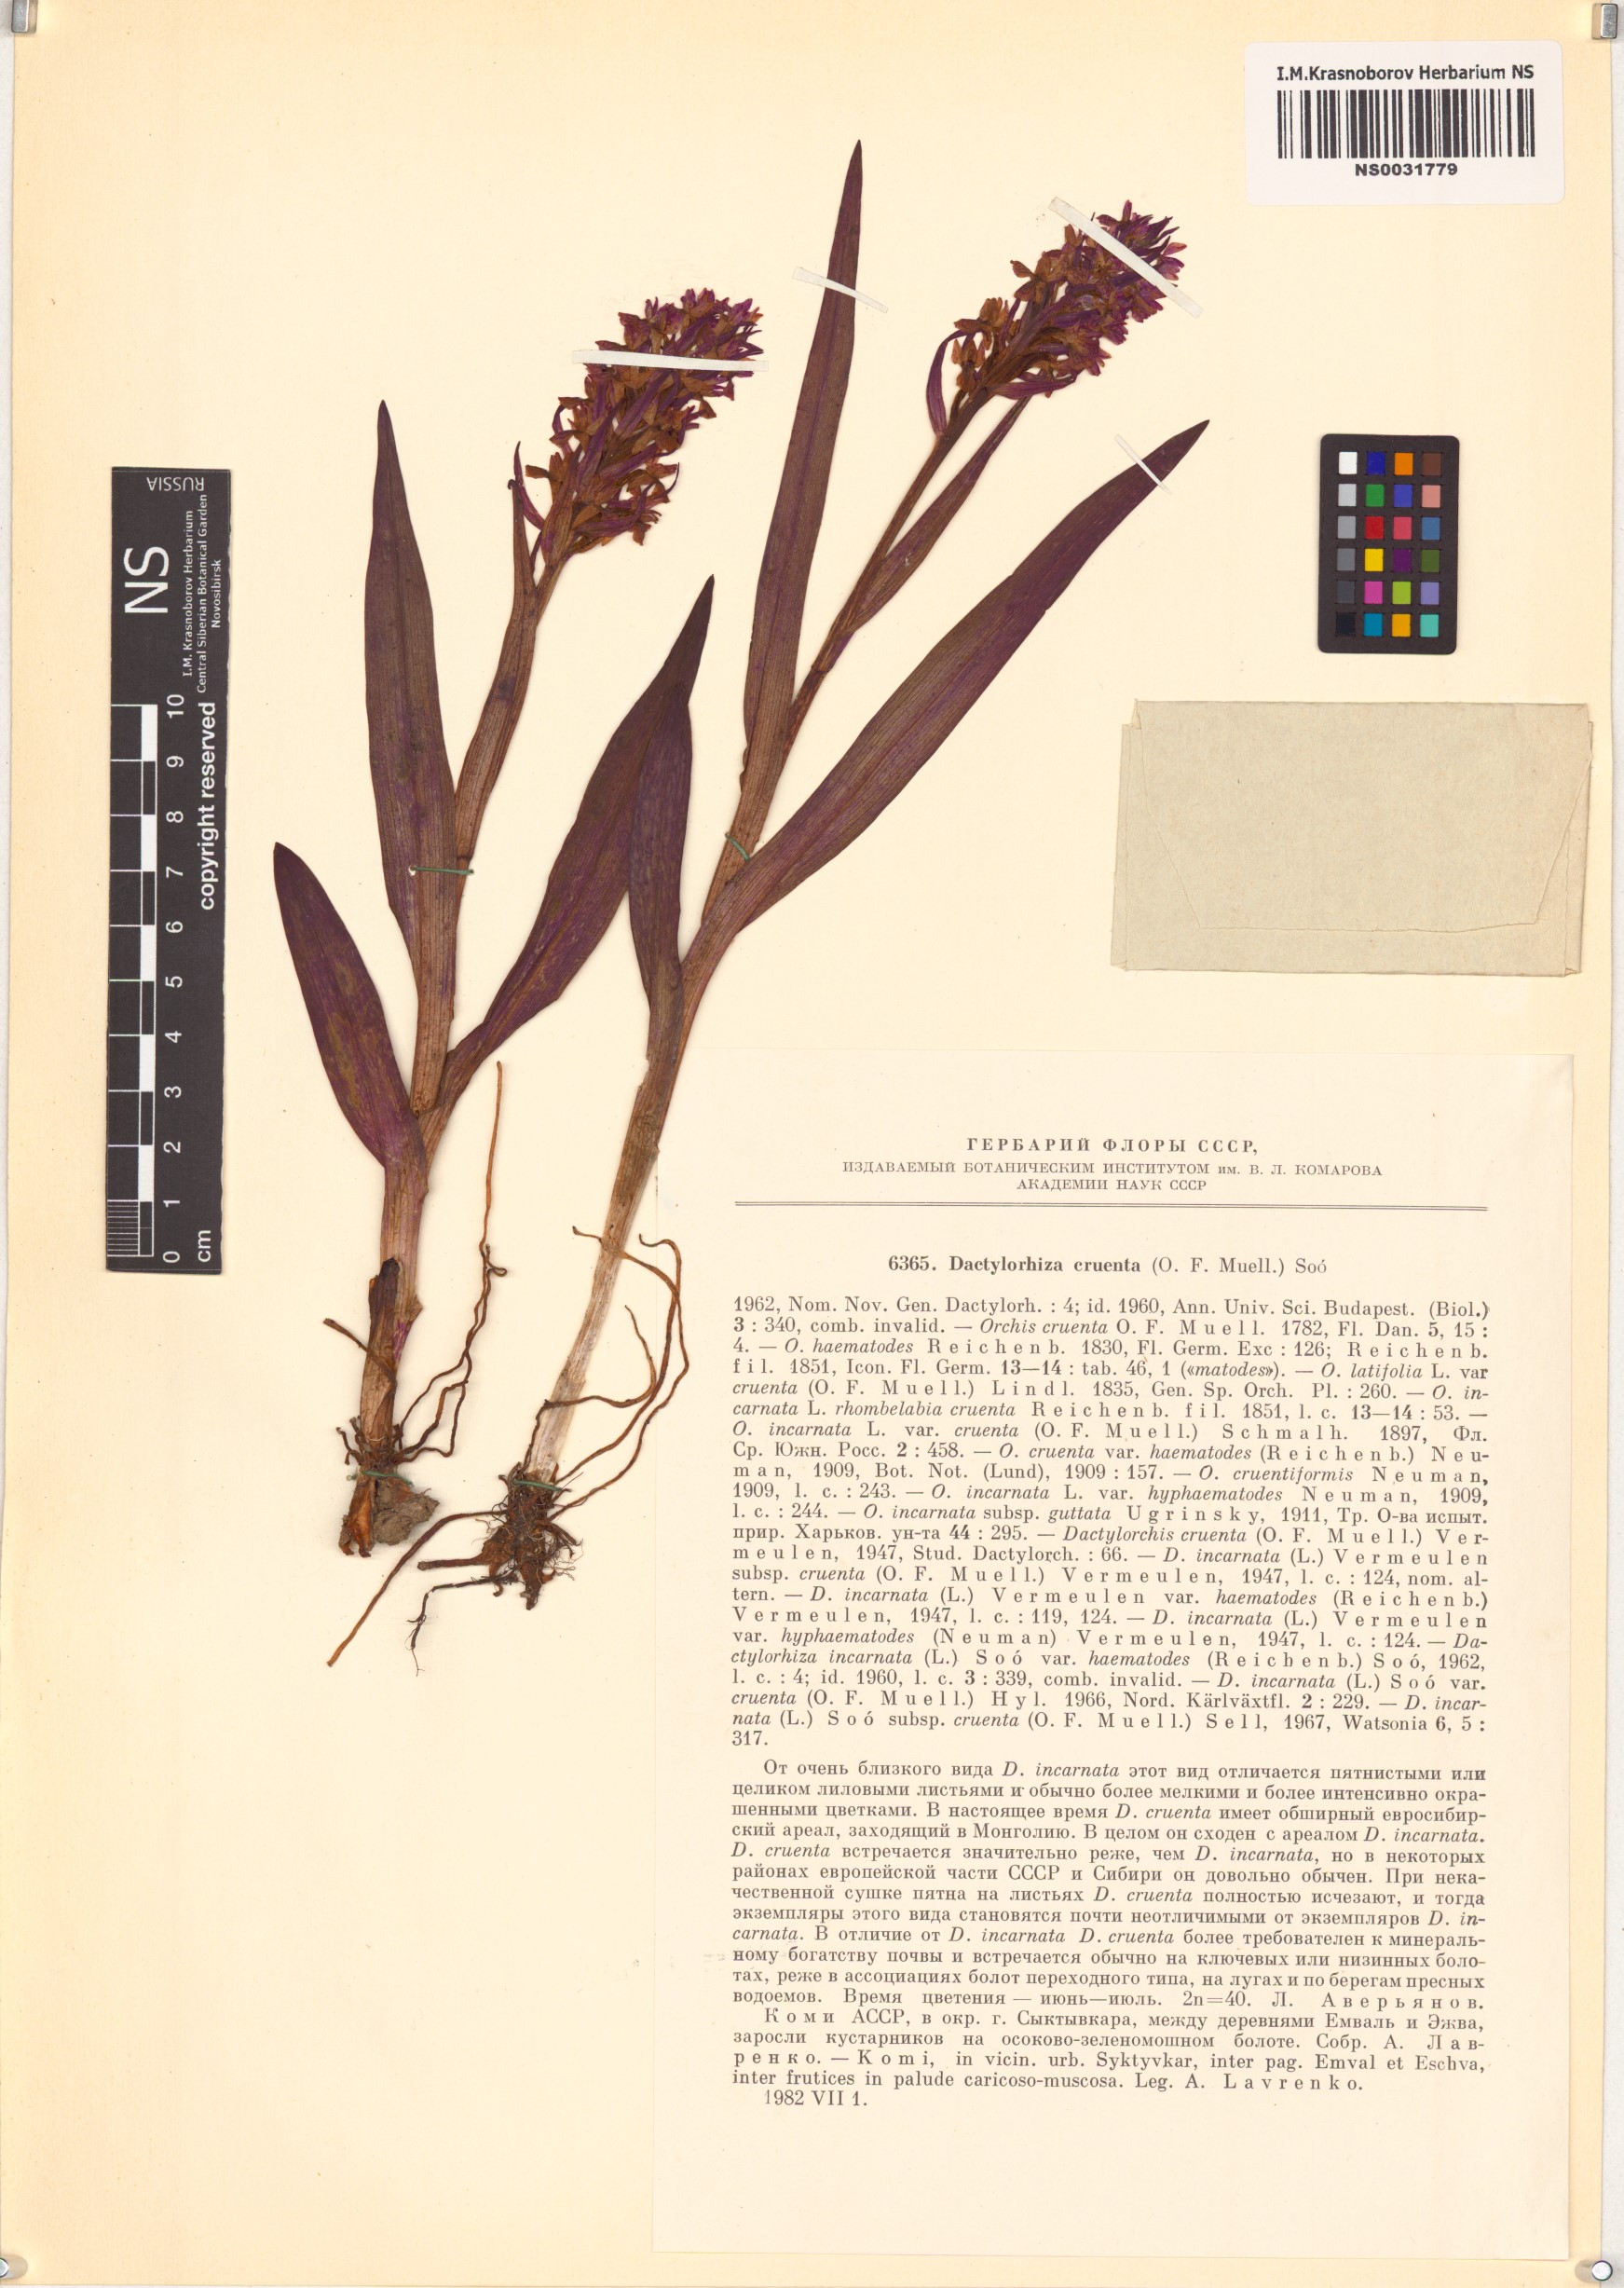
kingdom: Plantae
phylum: Tracheophyta
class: Liliopsida
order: Asparagales
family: Orchidaceae
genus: Dactylorhiza
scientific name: Dactylorhiza incarnata
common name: Early marsh-orchid
